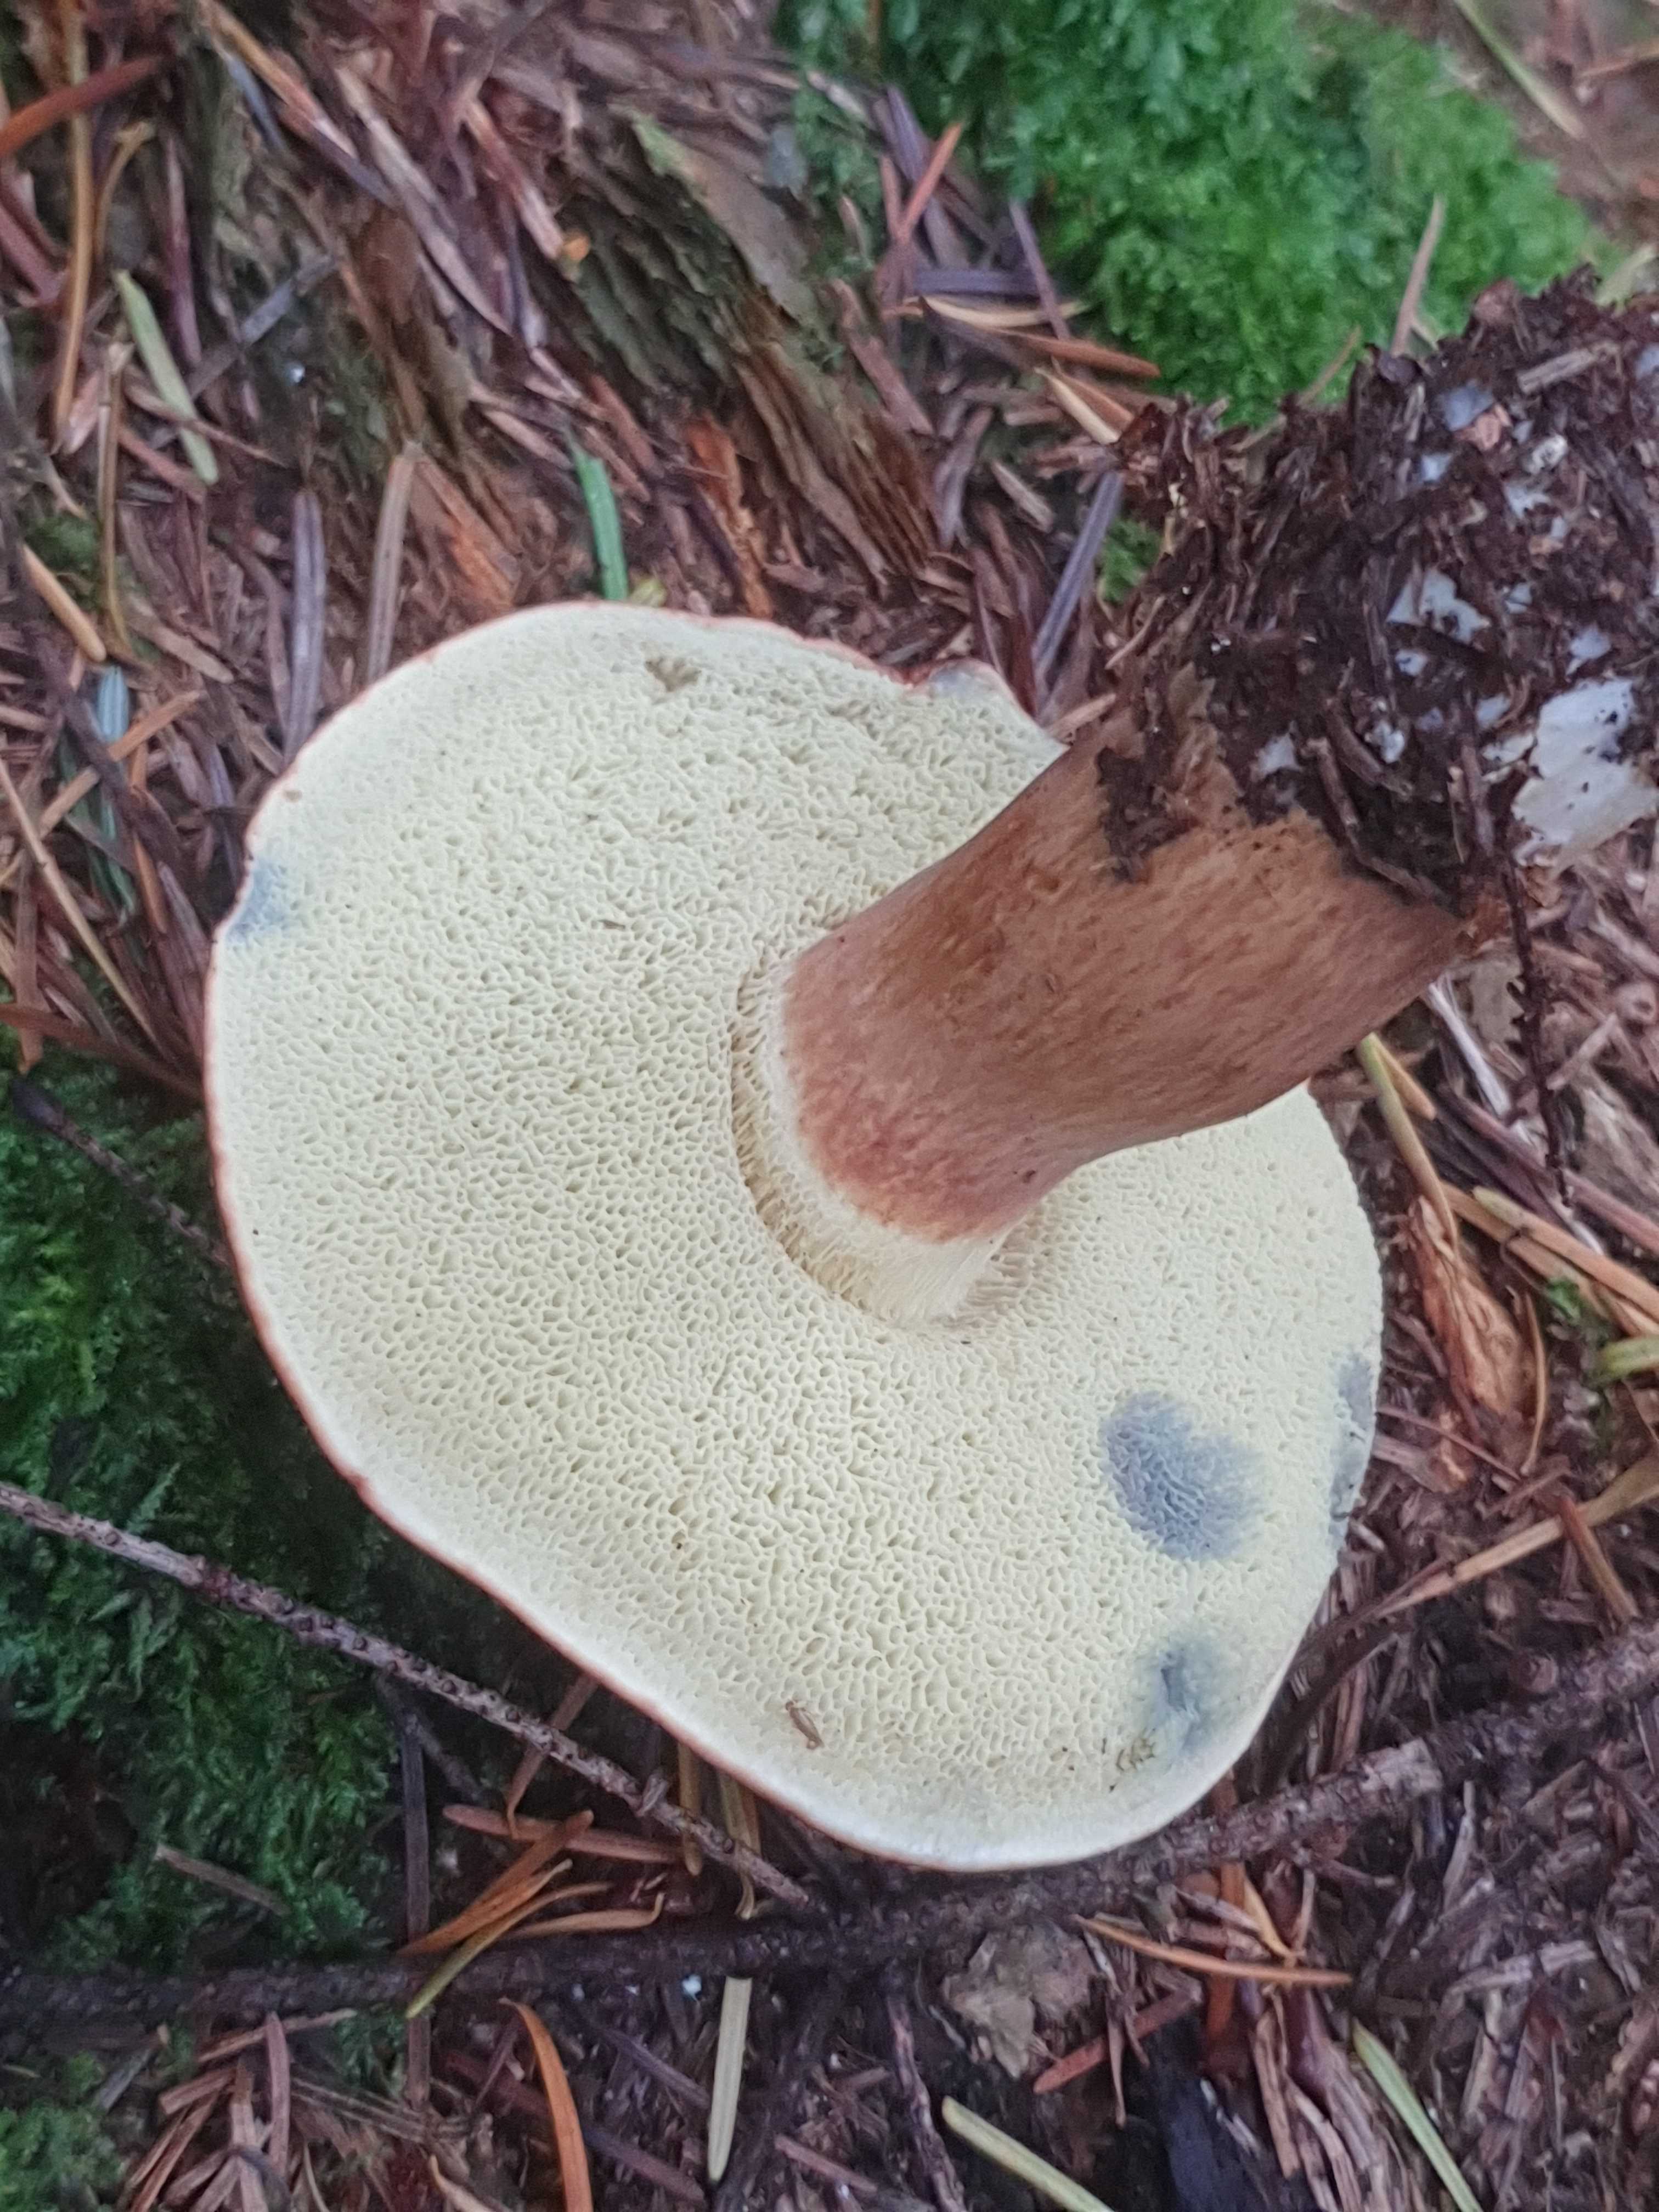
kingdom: Fungi
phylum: Basidiomycota
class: Agaricomycetes
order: Boletales
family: Boletaceae
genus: Imleria
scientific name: Imleria badia
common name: brunstokket rørhat
